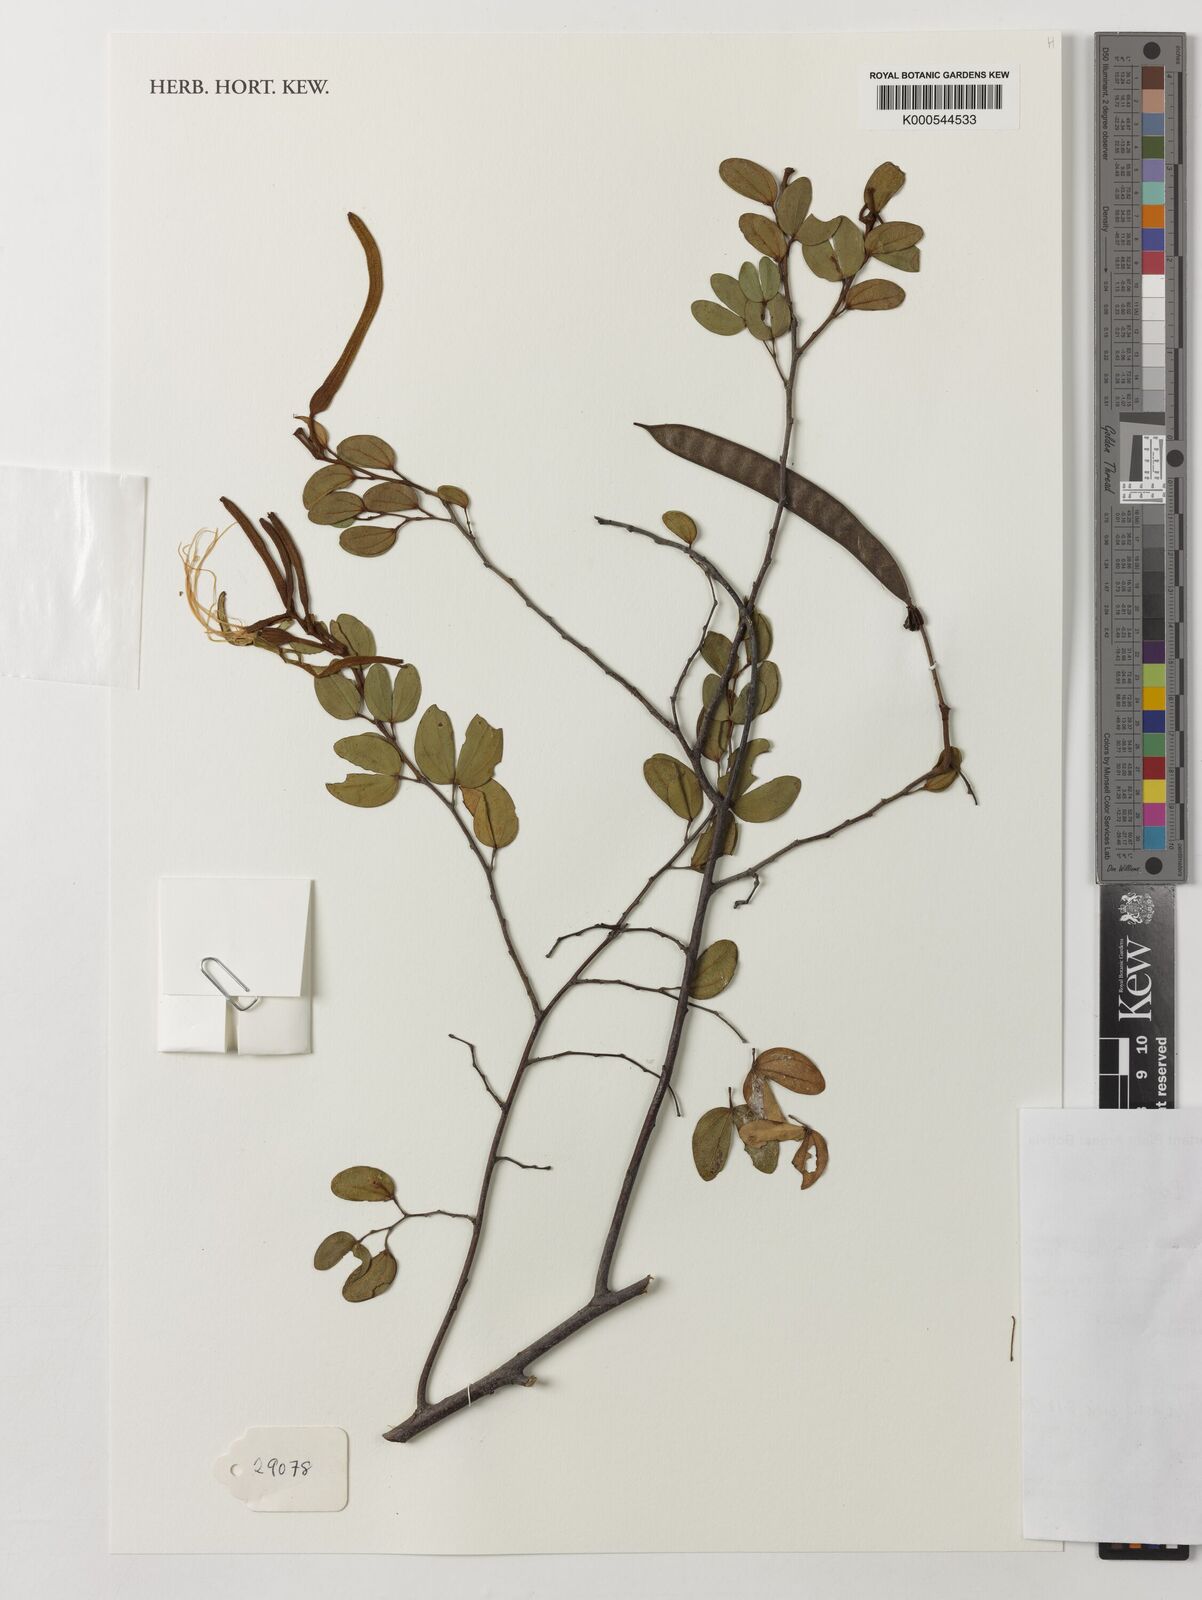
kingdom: Plantae
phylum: Tracheophyta
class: Magnoliopsida
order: Fabales
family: Fabaceae
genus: Bauhinia
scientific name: Bauhinia pulchella
